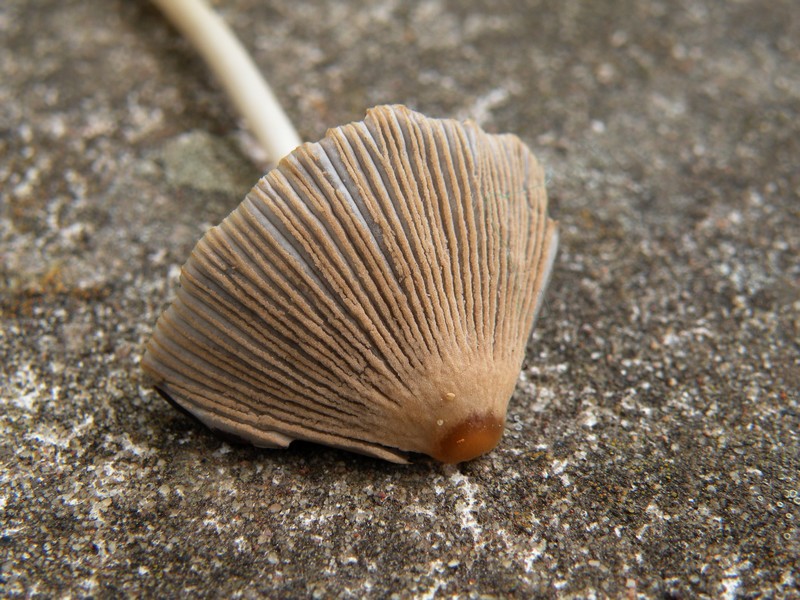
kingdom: Fungi
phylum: Basidiomycota
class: Agaricomycetes
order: Agaricales
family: Psathyrellaceae
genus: Parasola
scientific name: Parasola auricoma
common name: hansens hjulhat
